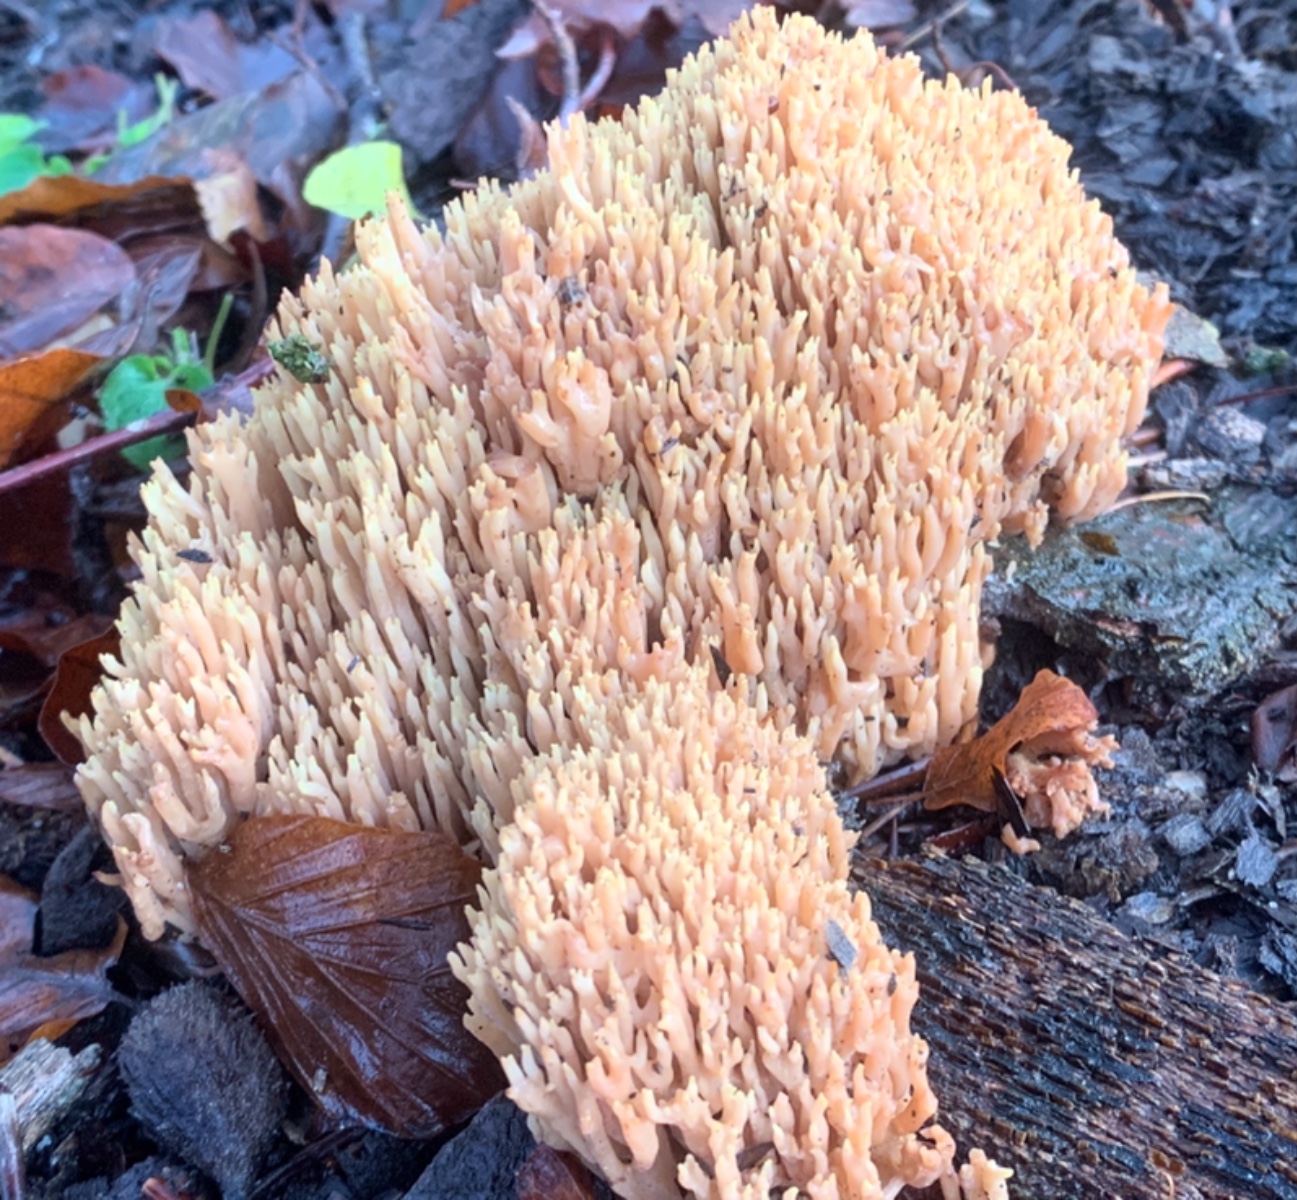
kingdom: Fungi
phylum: Basidiomycota
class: Agaricomycetes
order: Gomphales
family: Gomphaceae
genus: Ramaria
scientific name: Ramaria stricta
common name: rank koralsvamp
